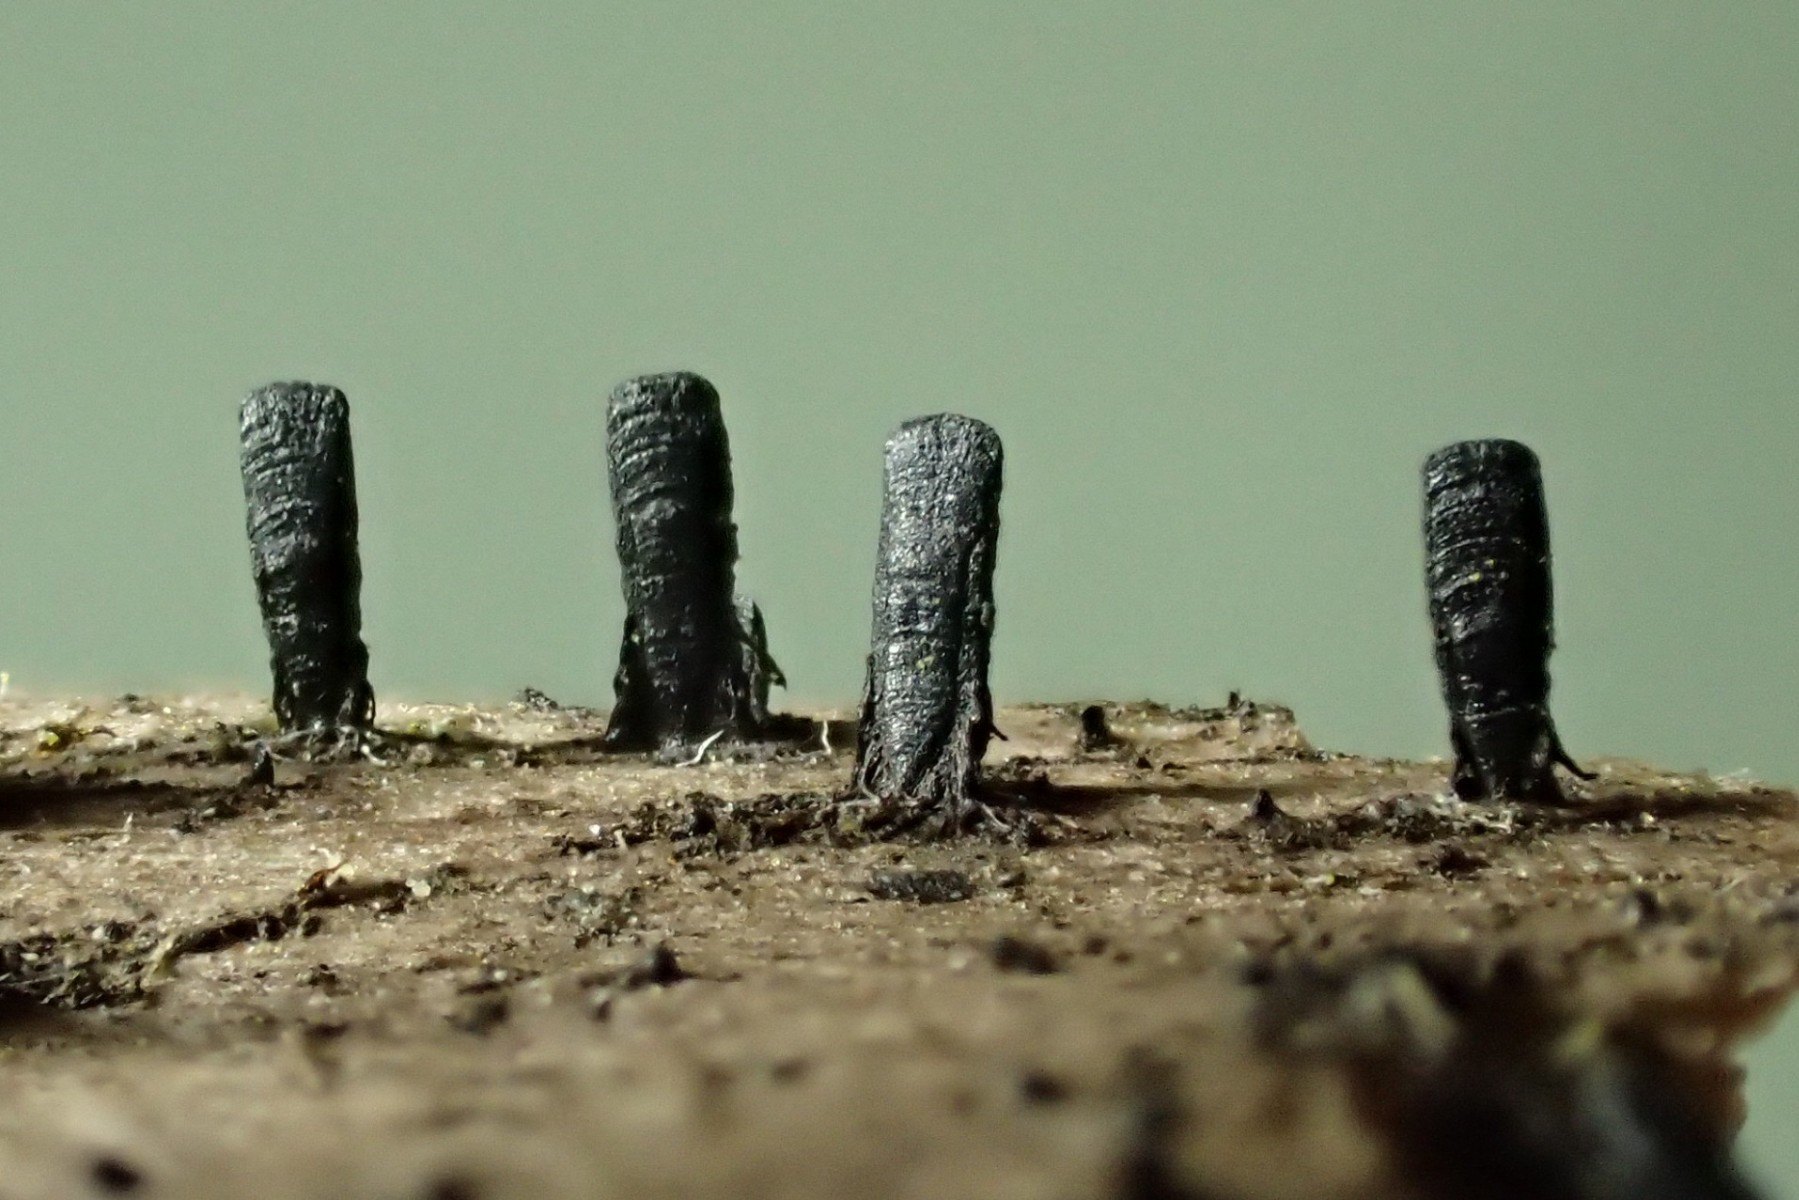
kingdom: Fungi
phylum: Ascomycota
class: Eurotiomycetes
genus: Glyphium
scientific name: Glyphium elatum
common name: kuløkse
